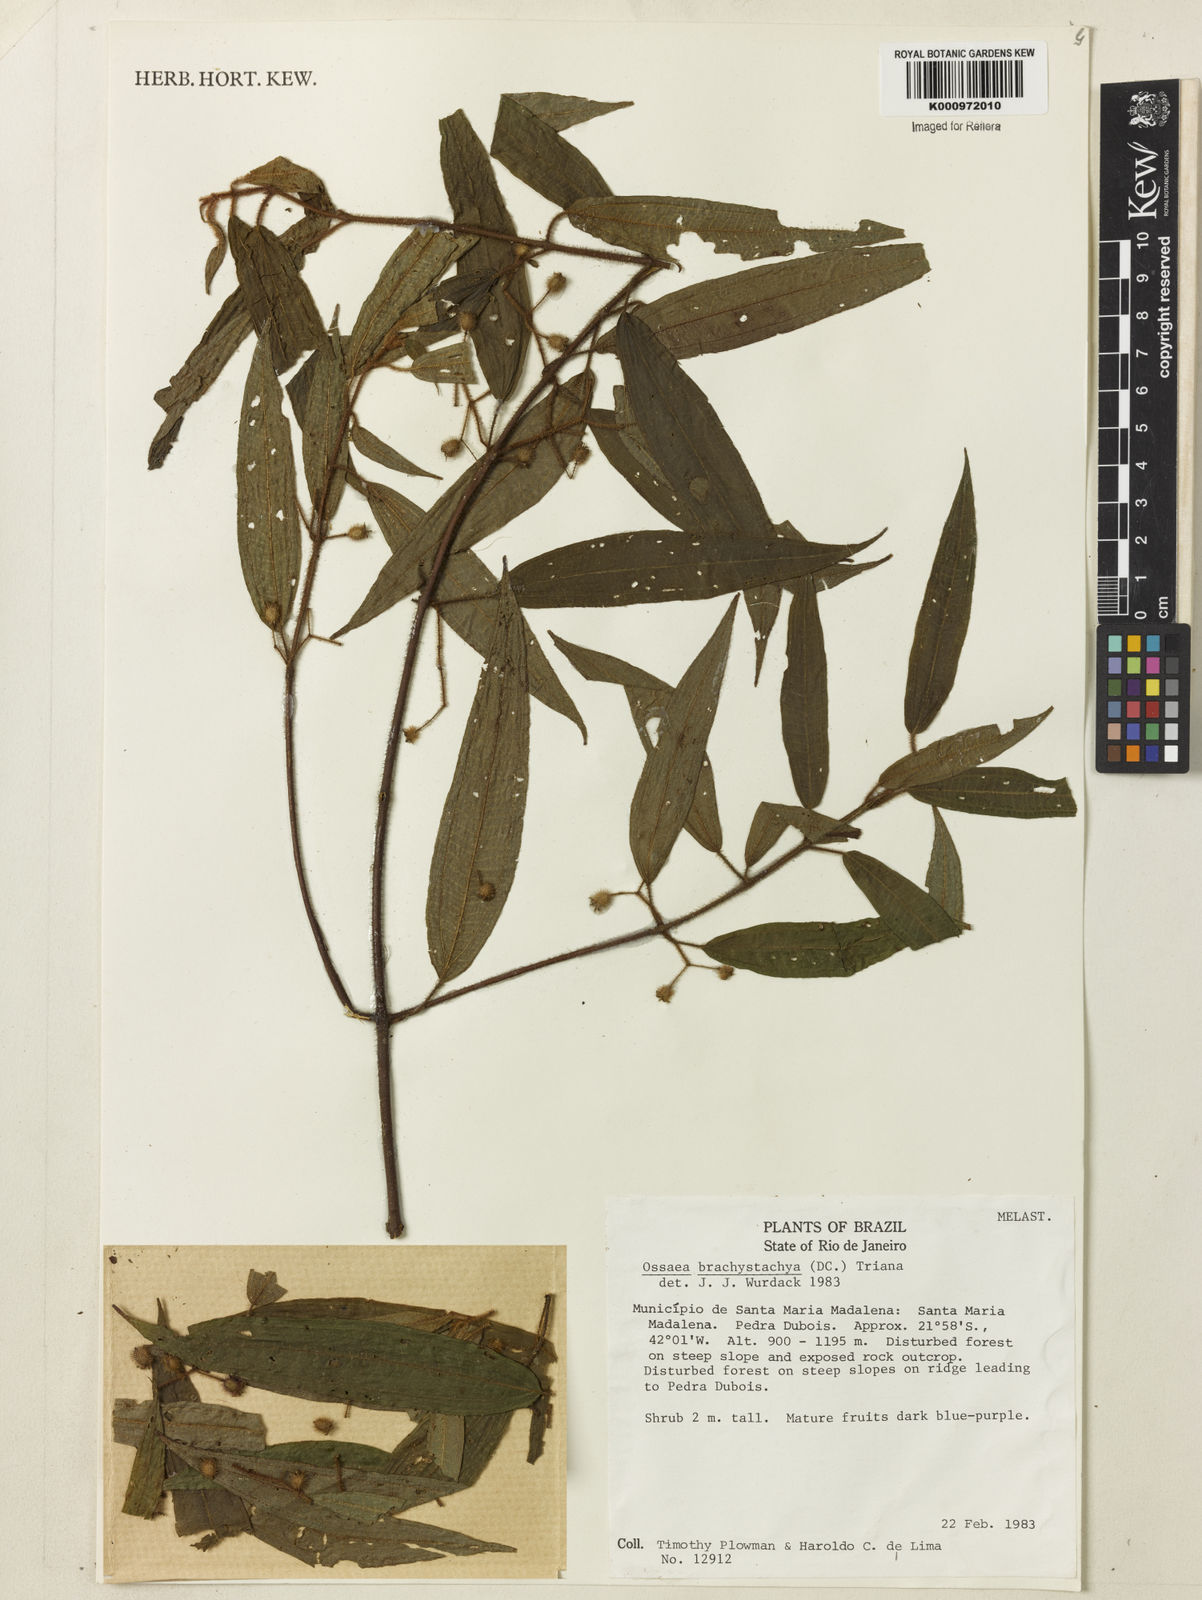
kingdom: Plantae
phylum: Tracheophyta
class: Magnoliopsida
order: Myrtales
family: Melastomataceae
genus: Miconia
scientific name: Miconia amygdaloides
